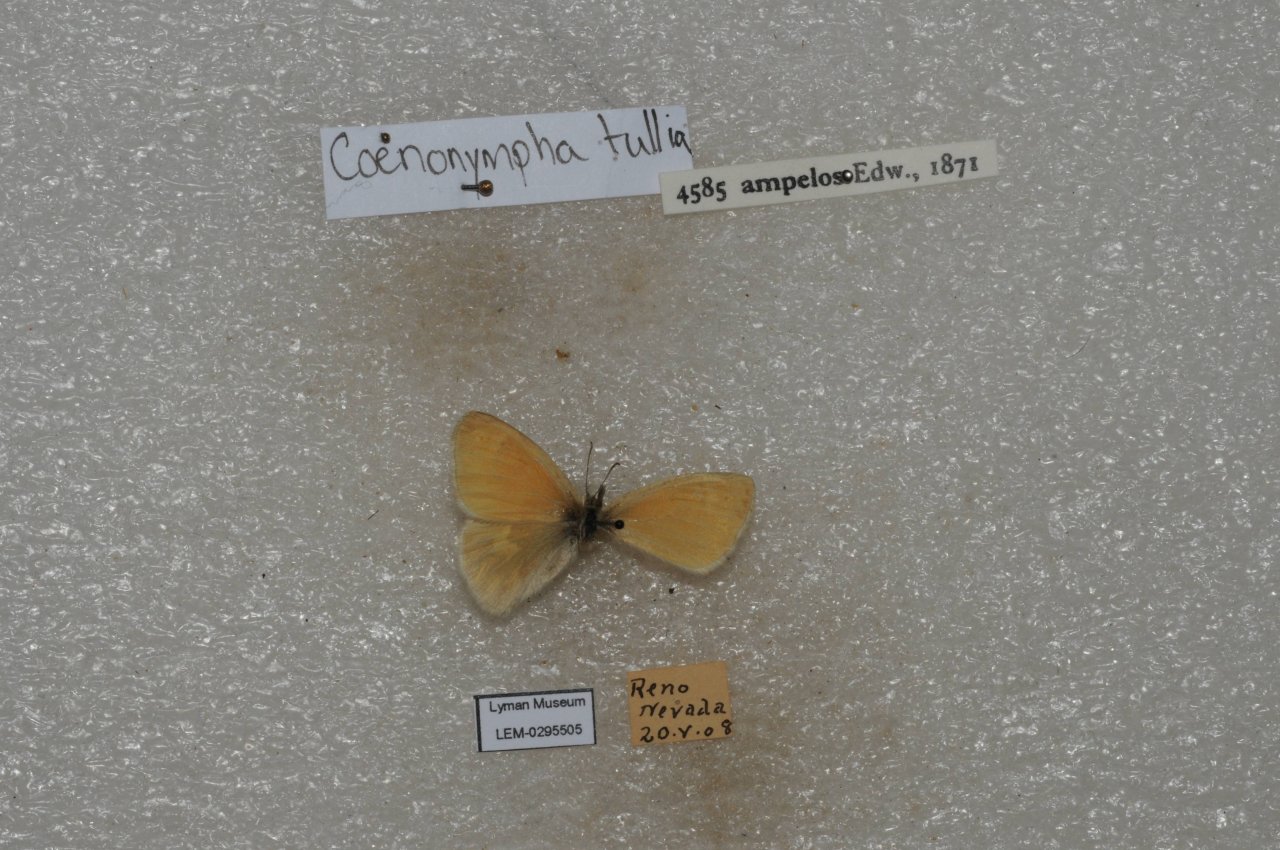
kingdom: Animalia
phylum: Arthropoda
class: Insecta
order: Lepidoptera
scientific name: Lepidoptera
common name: Butterflies
